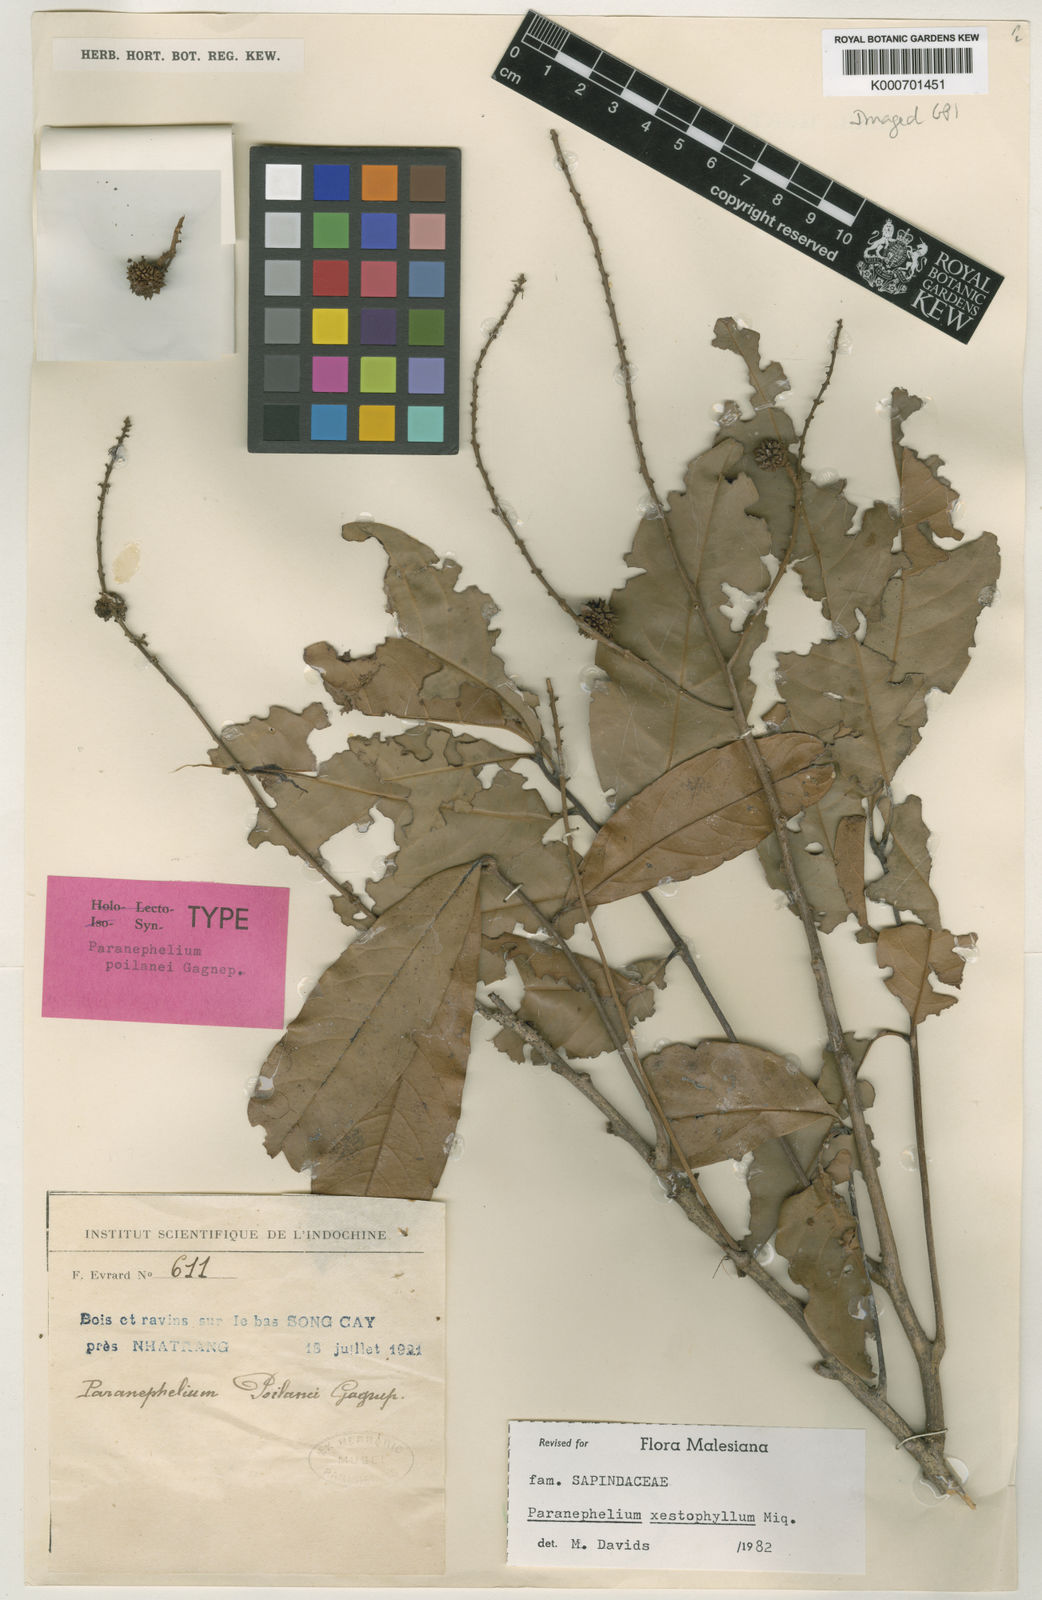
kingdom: Plantae
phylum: Tracheophyta
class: Magnoliopsida
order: Sapindales
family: Sapindaceae
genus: Paranephelium
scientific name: Paranephelium xestophyllum
